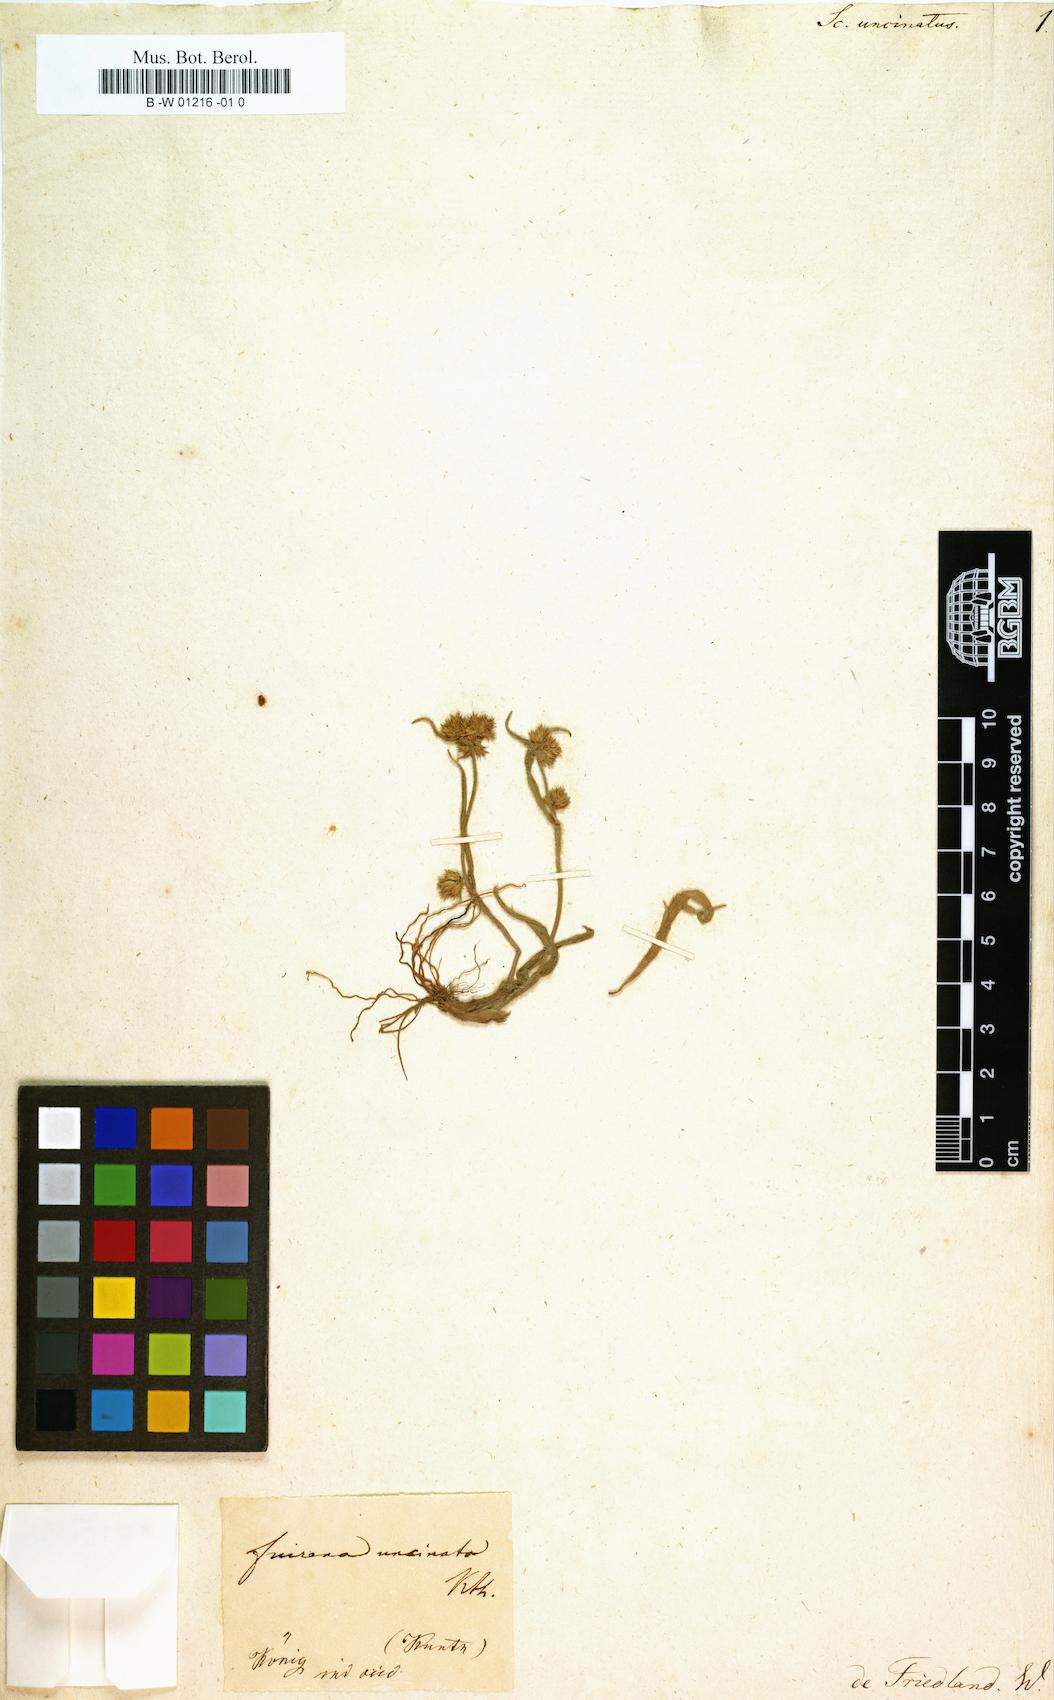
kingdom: Plantae
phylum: Tracheophyta
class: Liliopsida
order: Poales
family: Cyperaceae
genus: Fuirena
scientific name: Fuirena uncinata
